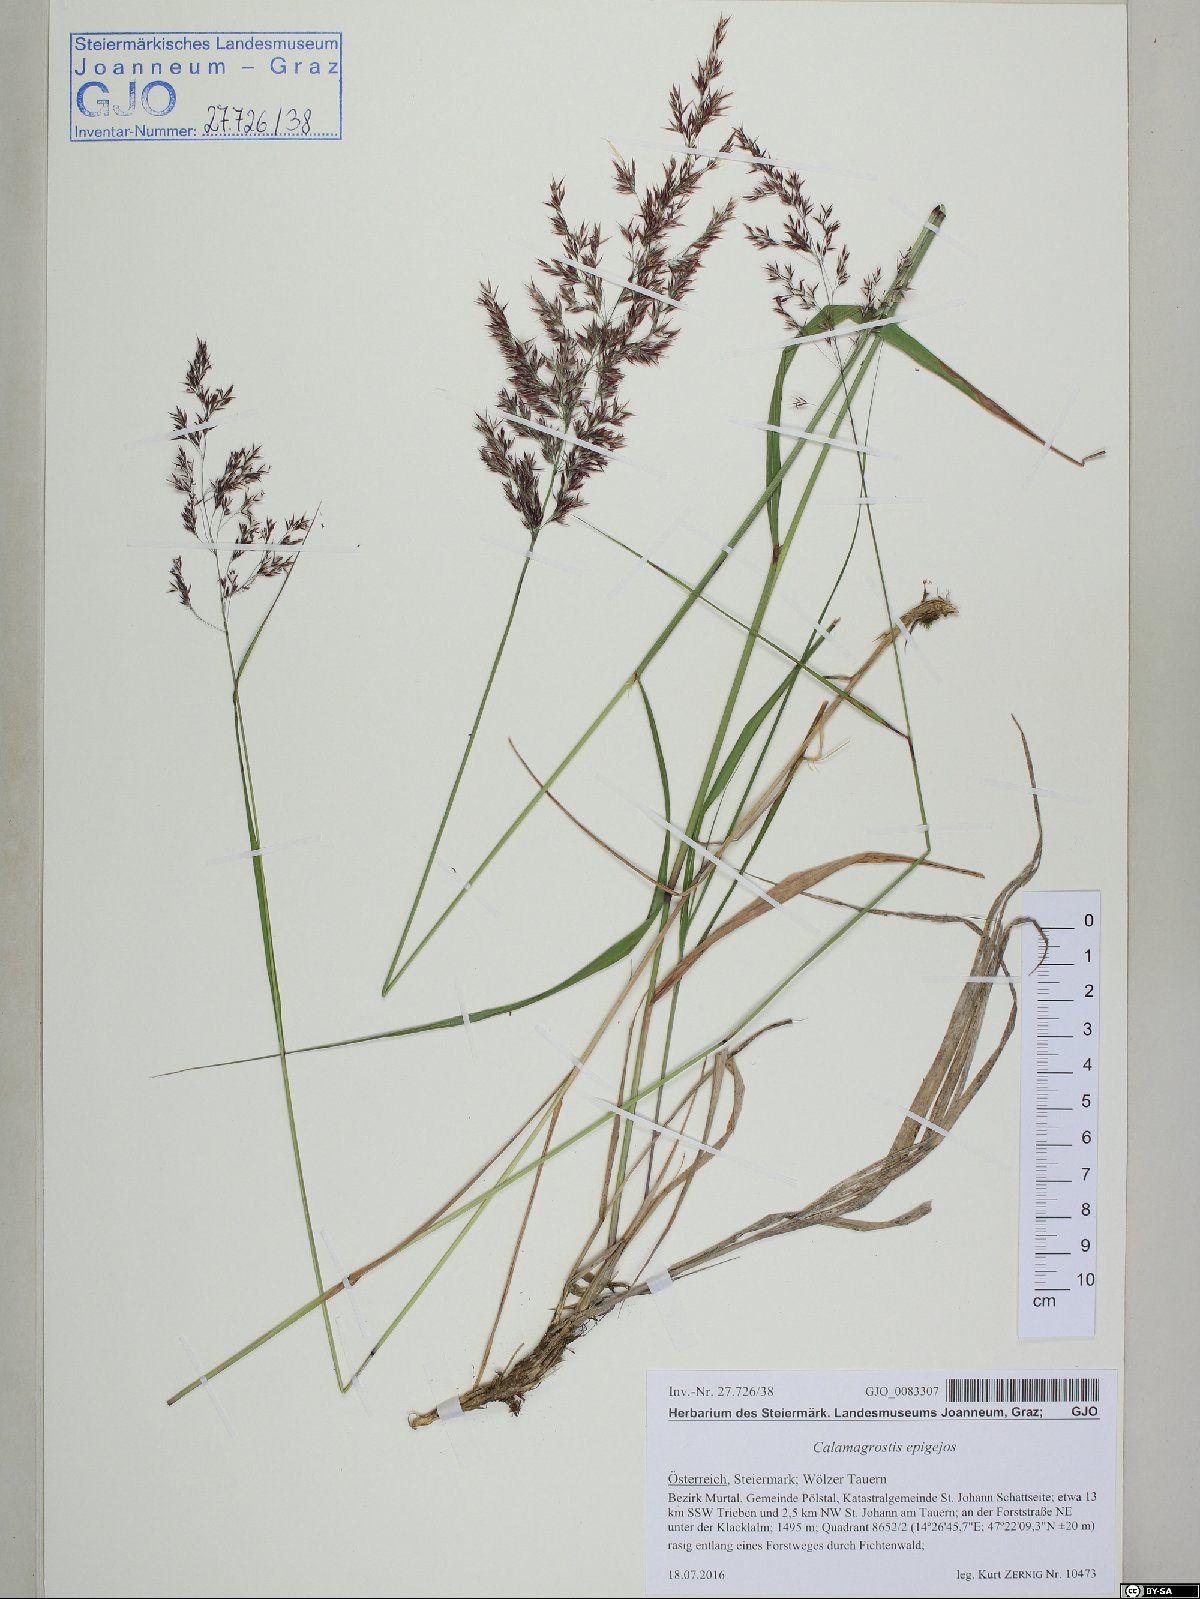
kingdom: Plantae
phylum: Tracheophyta
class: Liliopsida
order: Poales
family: Poaceae
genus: Calamagrostis
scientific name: Calamagrostis epigejos
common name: Wood small-reed
